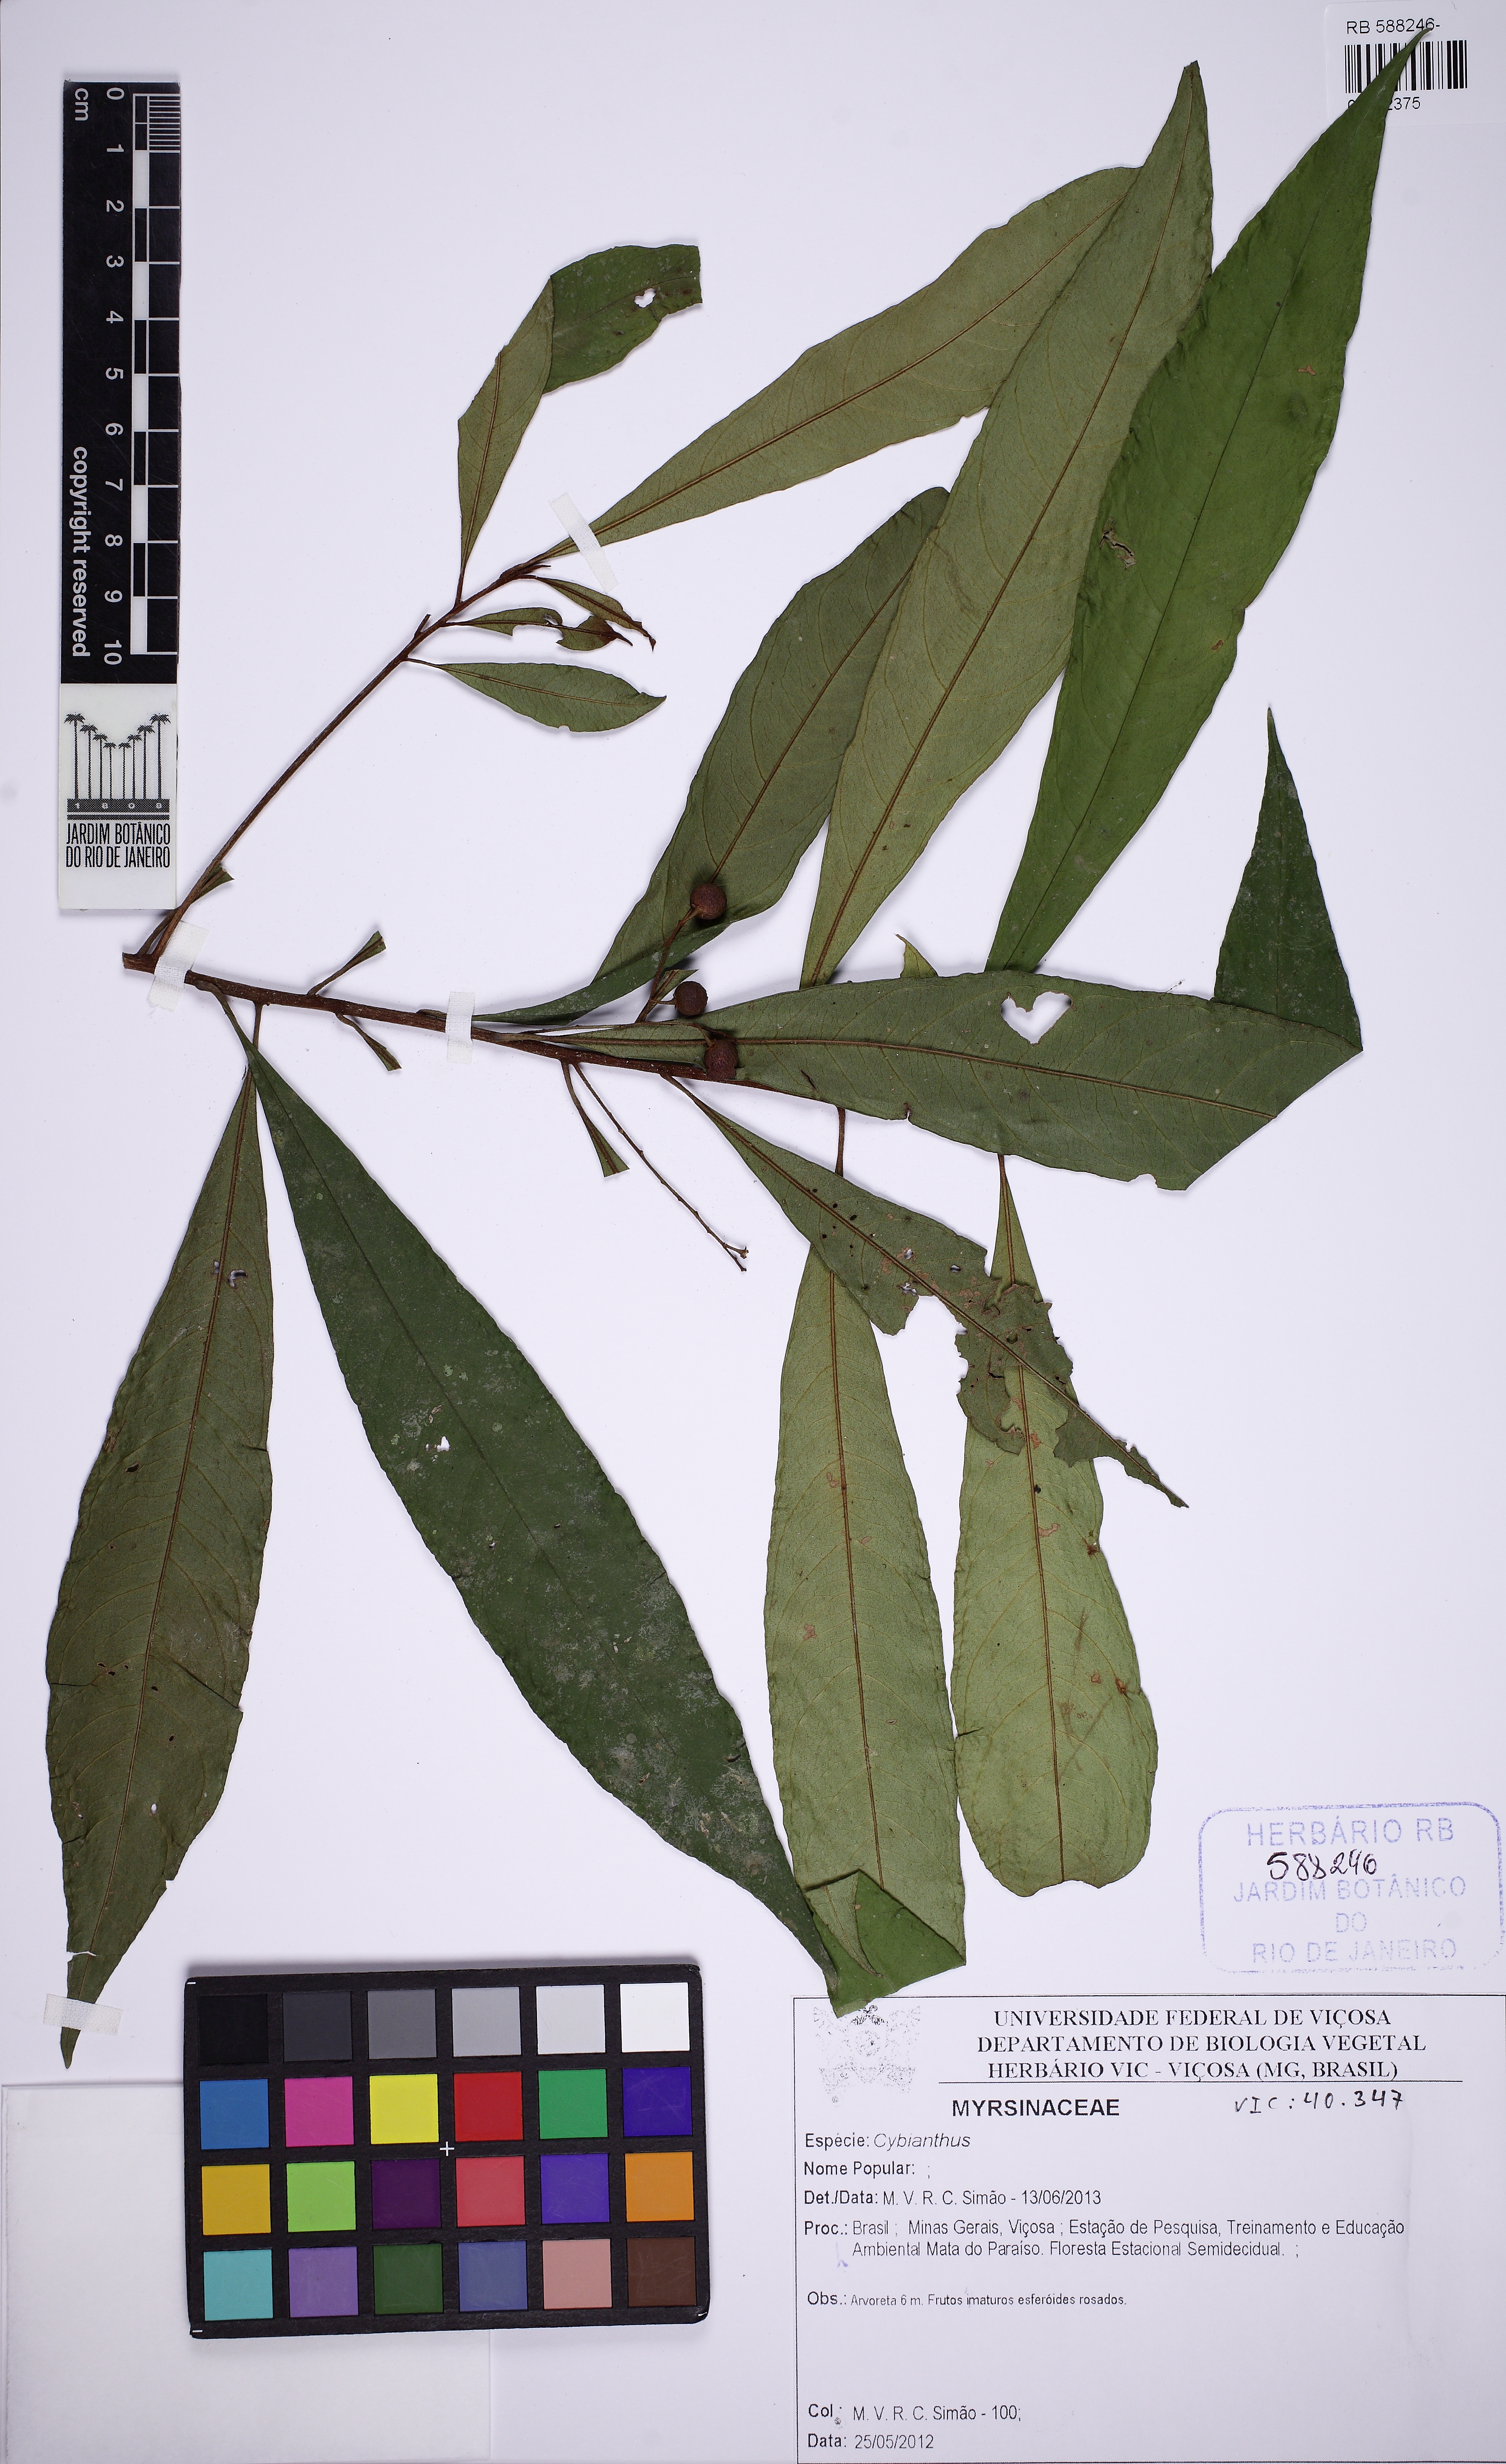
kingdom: Plantae
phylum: Tracheophyta
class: Magnoliopsida
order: Ericales
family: Primulaceae
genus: Cybianthus
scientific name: Cybianthus
